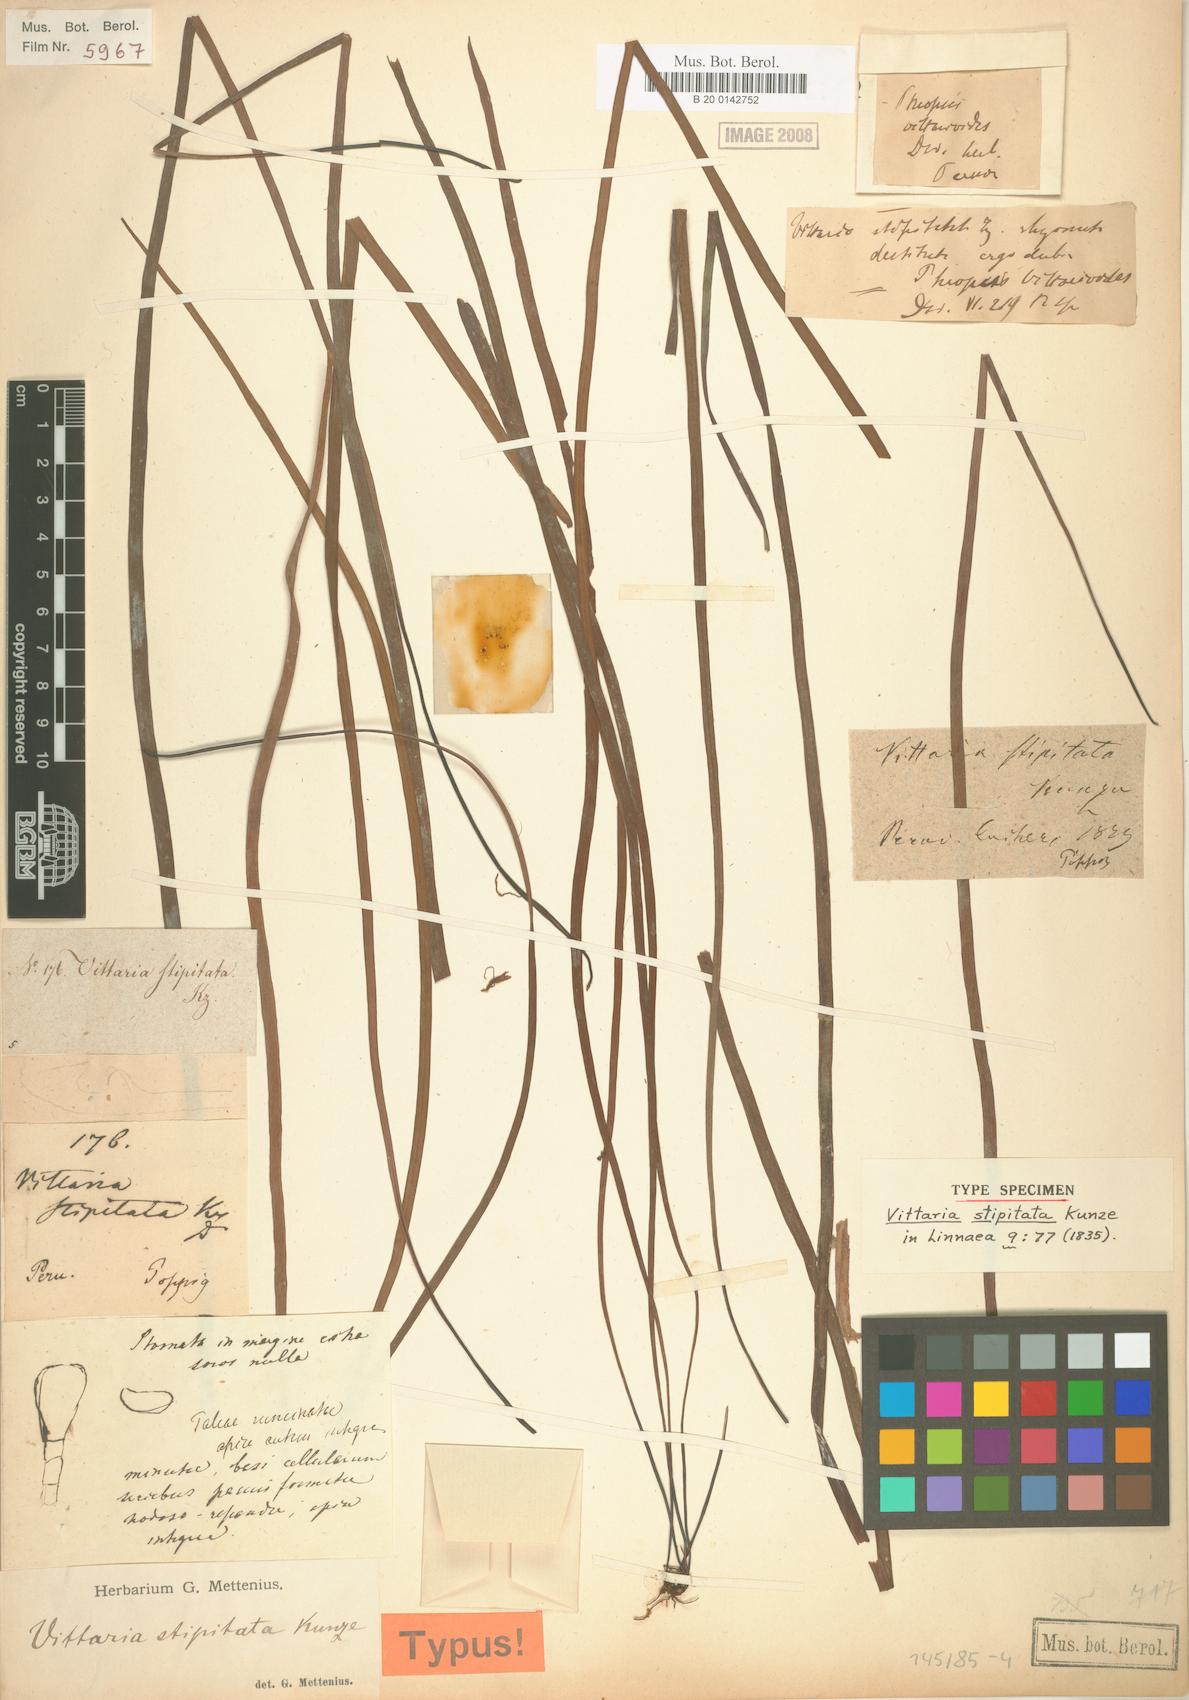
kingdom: Plantae
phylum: Tracheophyta
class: Polypodiopsida
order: Polypodiales
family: Pteridaceae
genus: Radiovittaria
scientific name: Radiovittaria stipitata
